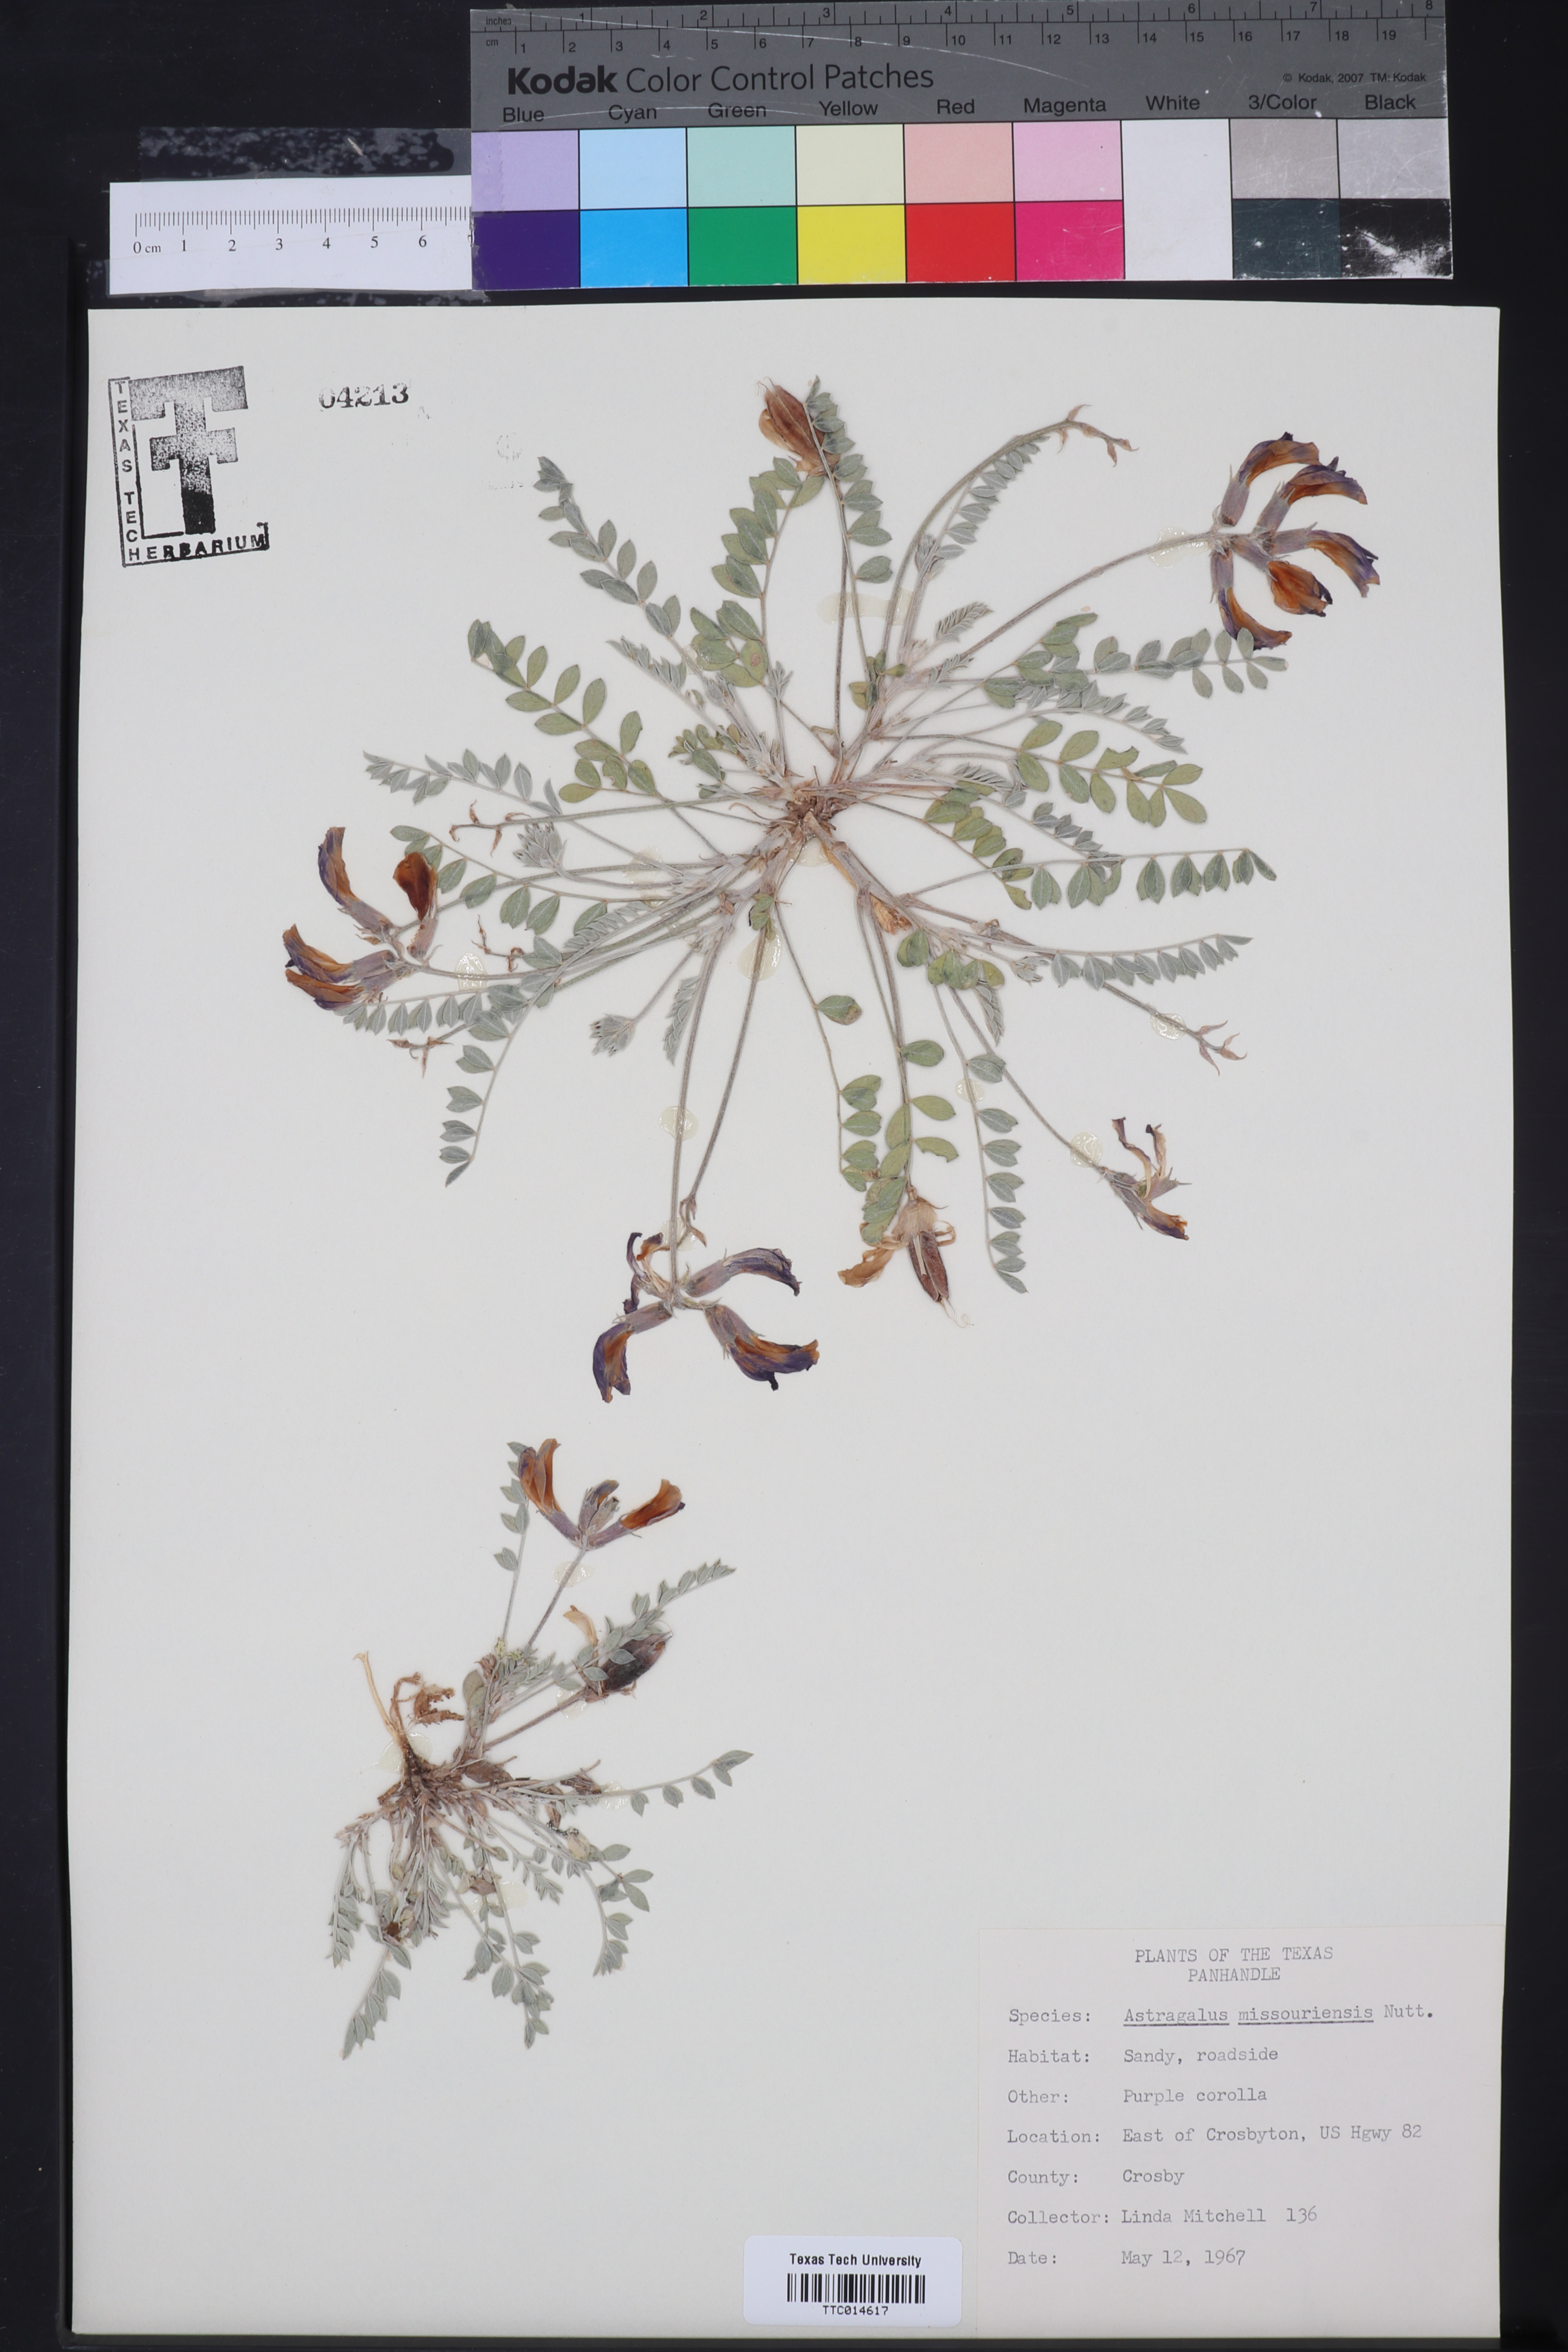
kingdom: Plantae
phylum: Tracheophyta
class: Magnoliopsida
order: Fabales
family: Fabaceae
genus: Astragalus
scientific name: Astragalus missouriensis
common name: Missouri milk-vetch
